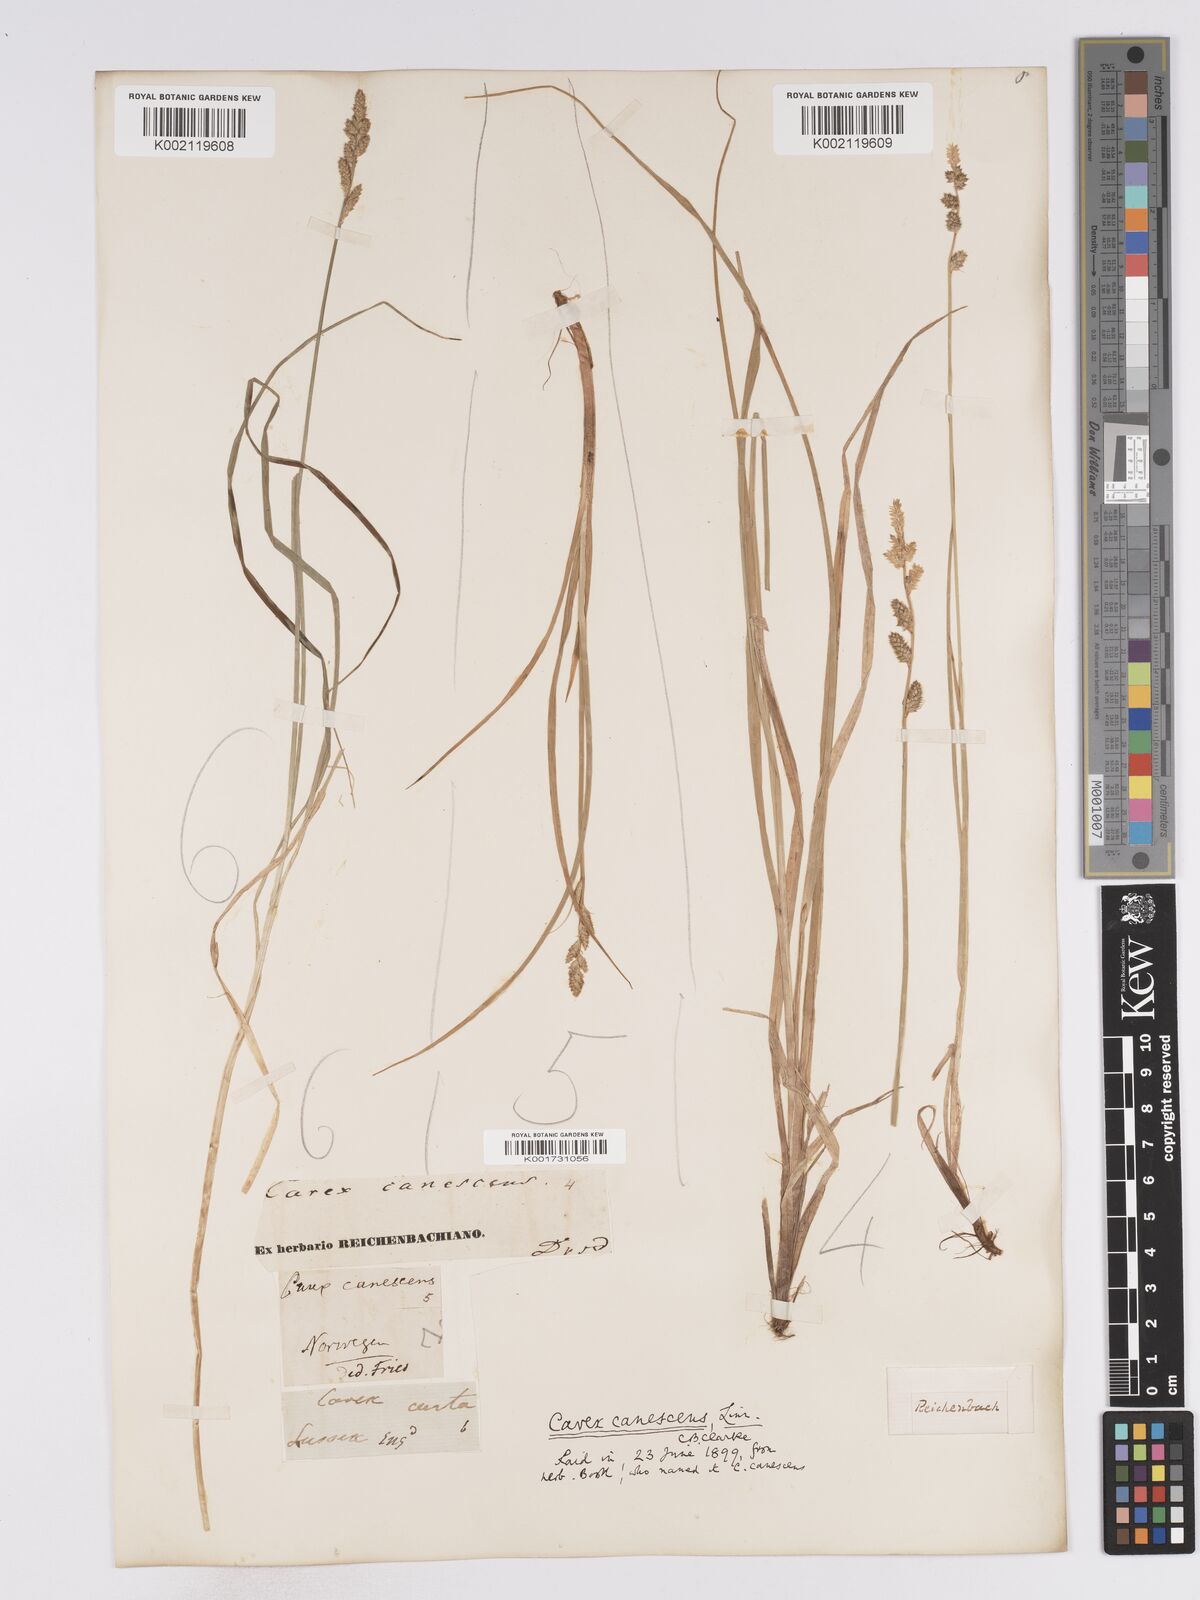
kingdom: Plantae
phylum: Tracheophyta
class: Liliopsida
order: Poales
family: Cyperaceae
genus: Carex
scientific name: Carex curta
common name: White sedge
